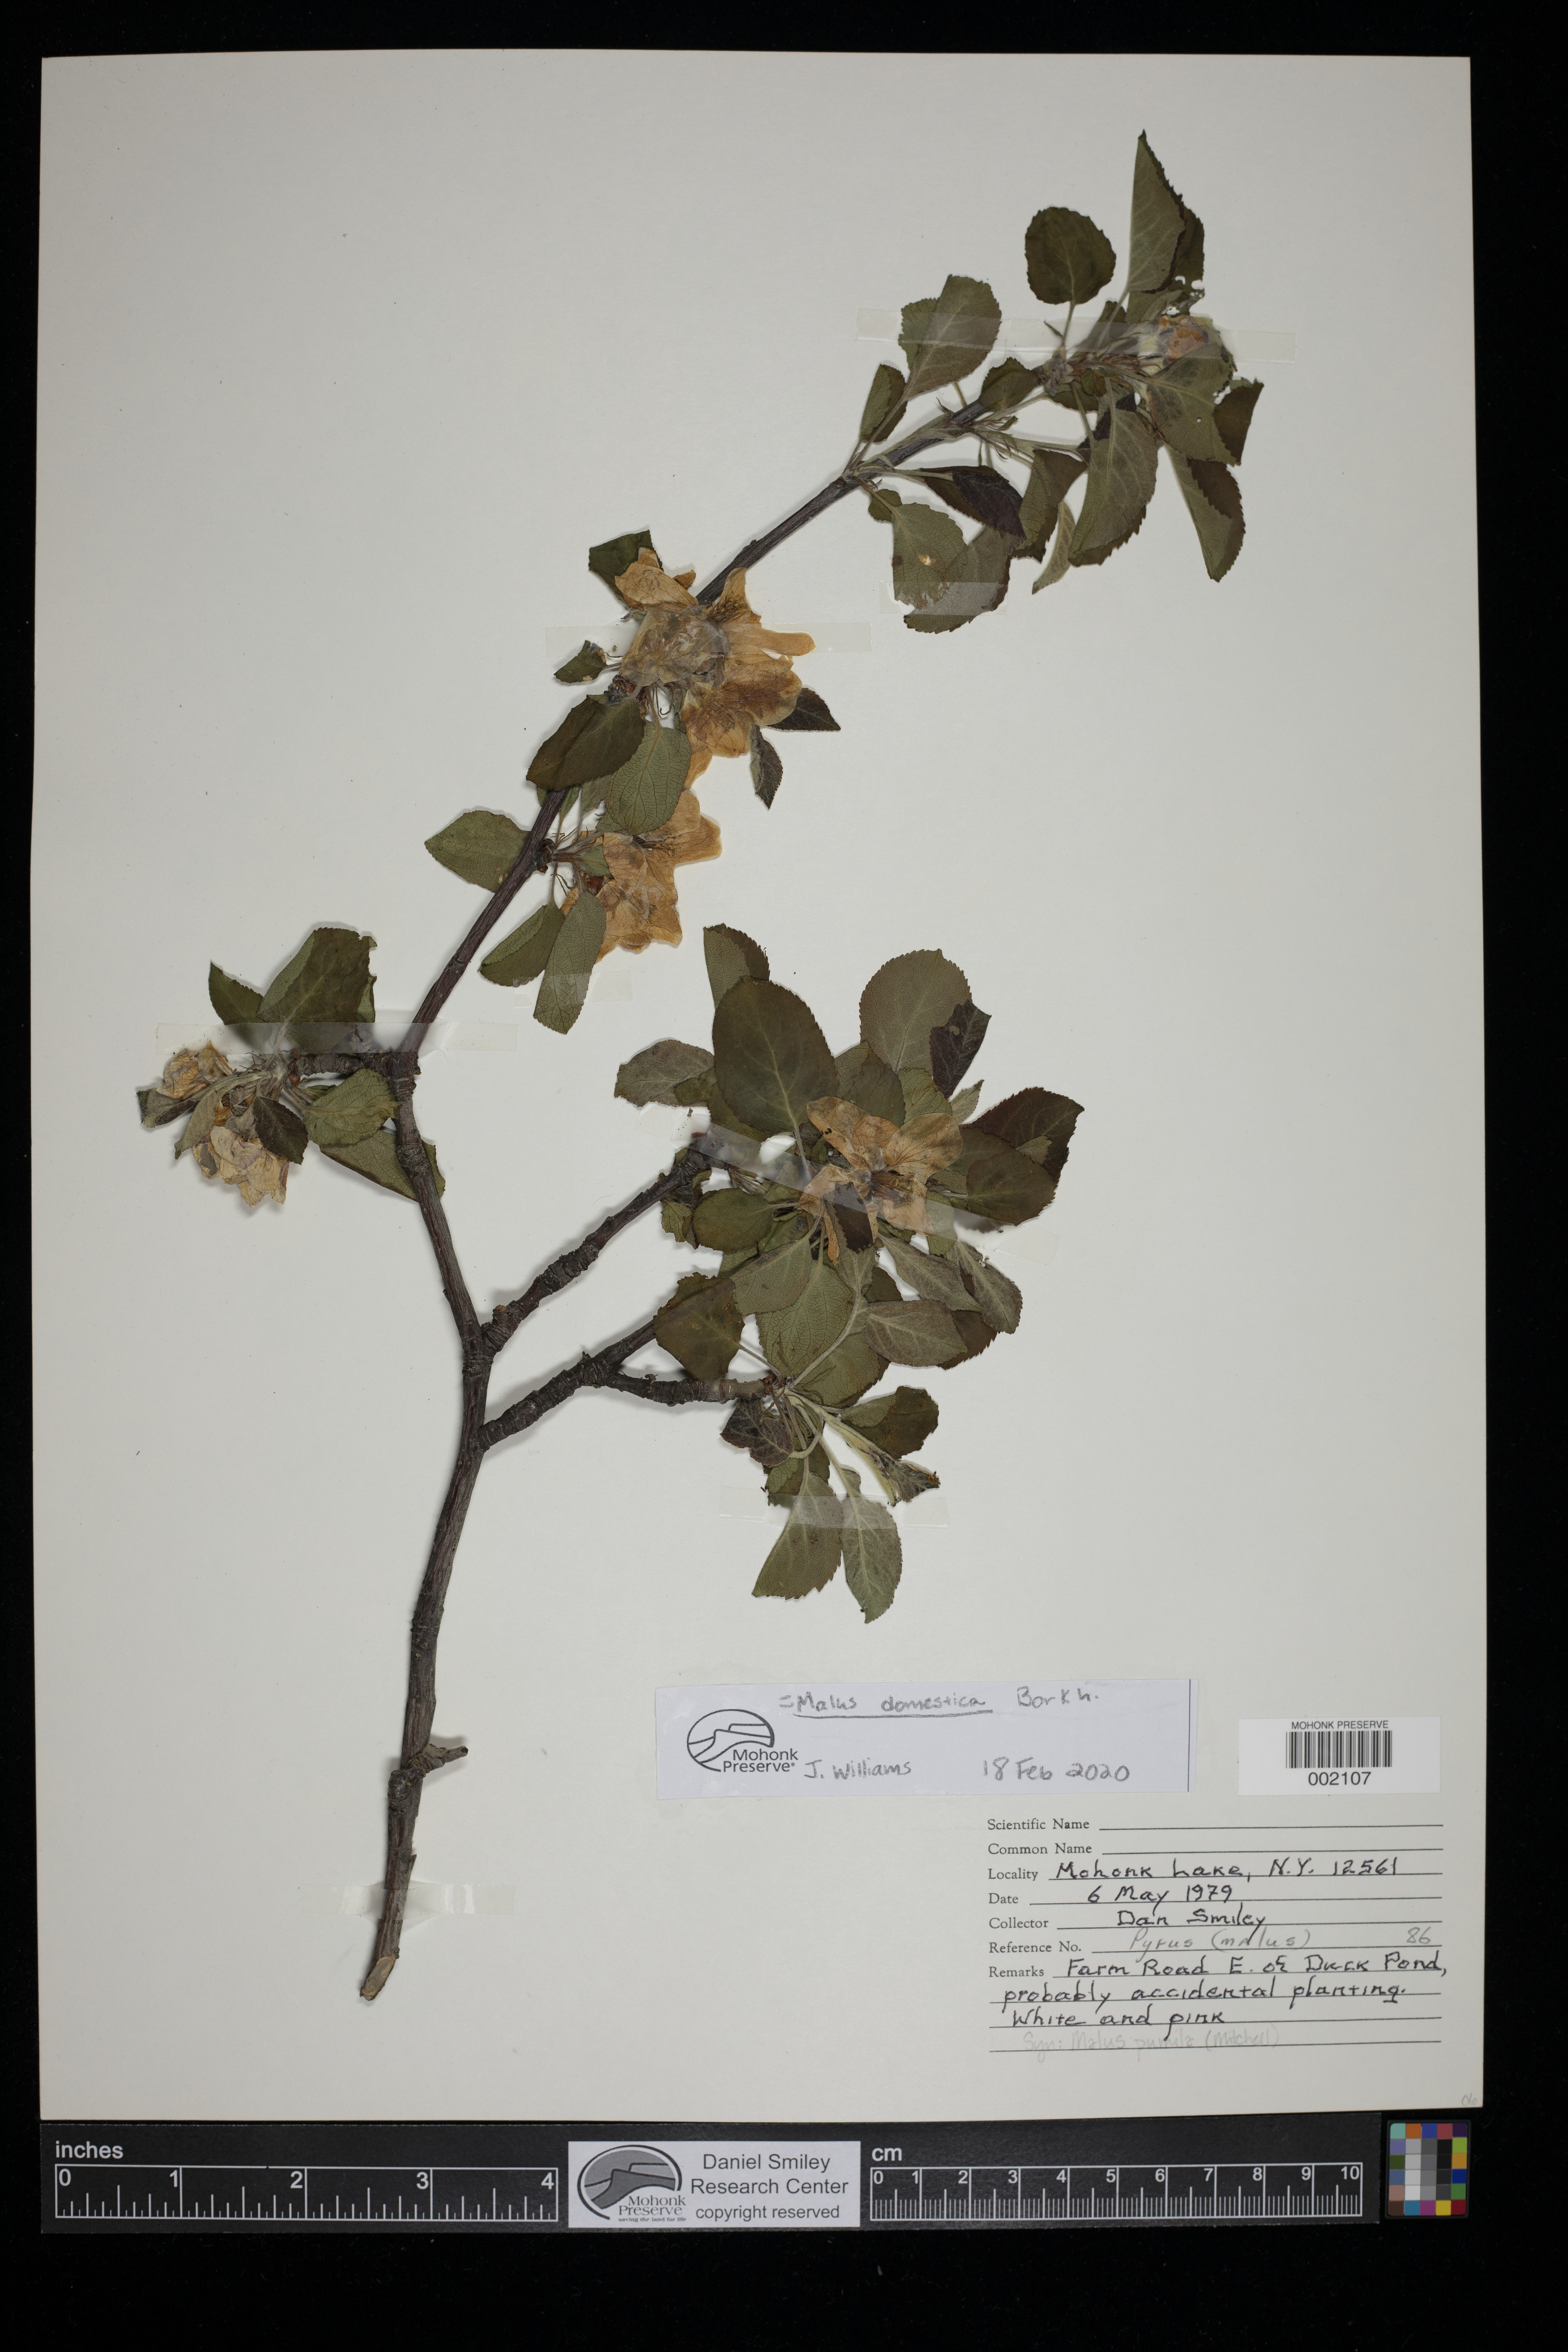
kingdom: Plantae
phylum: Tracheophyta
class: Magnoliopsida
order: Rosales
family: Rosaceae
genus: Malus
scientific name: Malus domestica
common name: Apple
